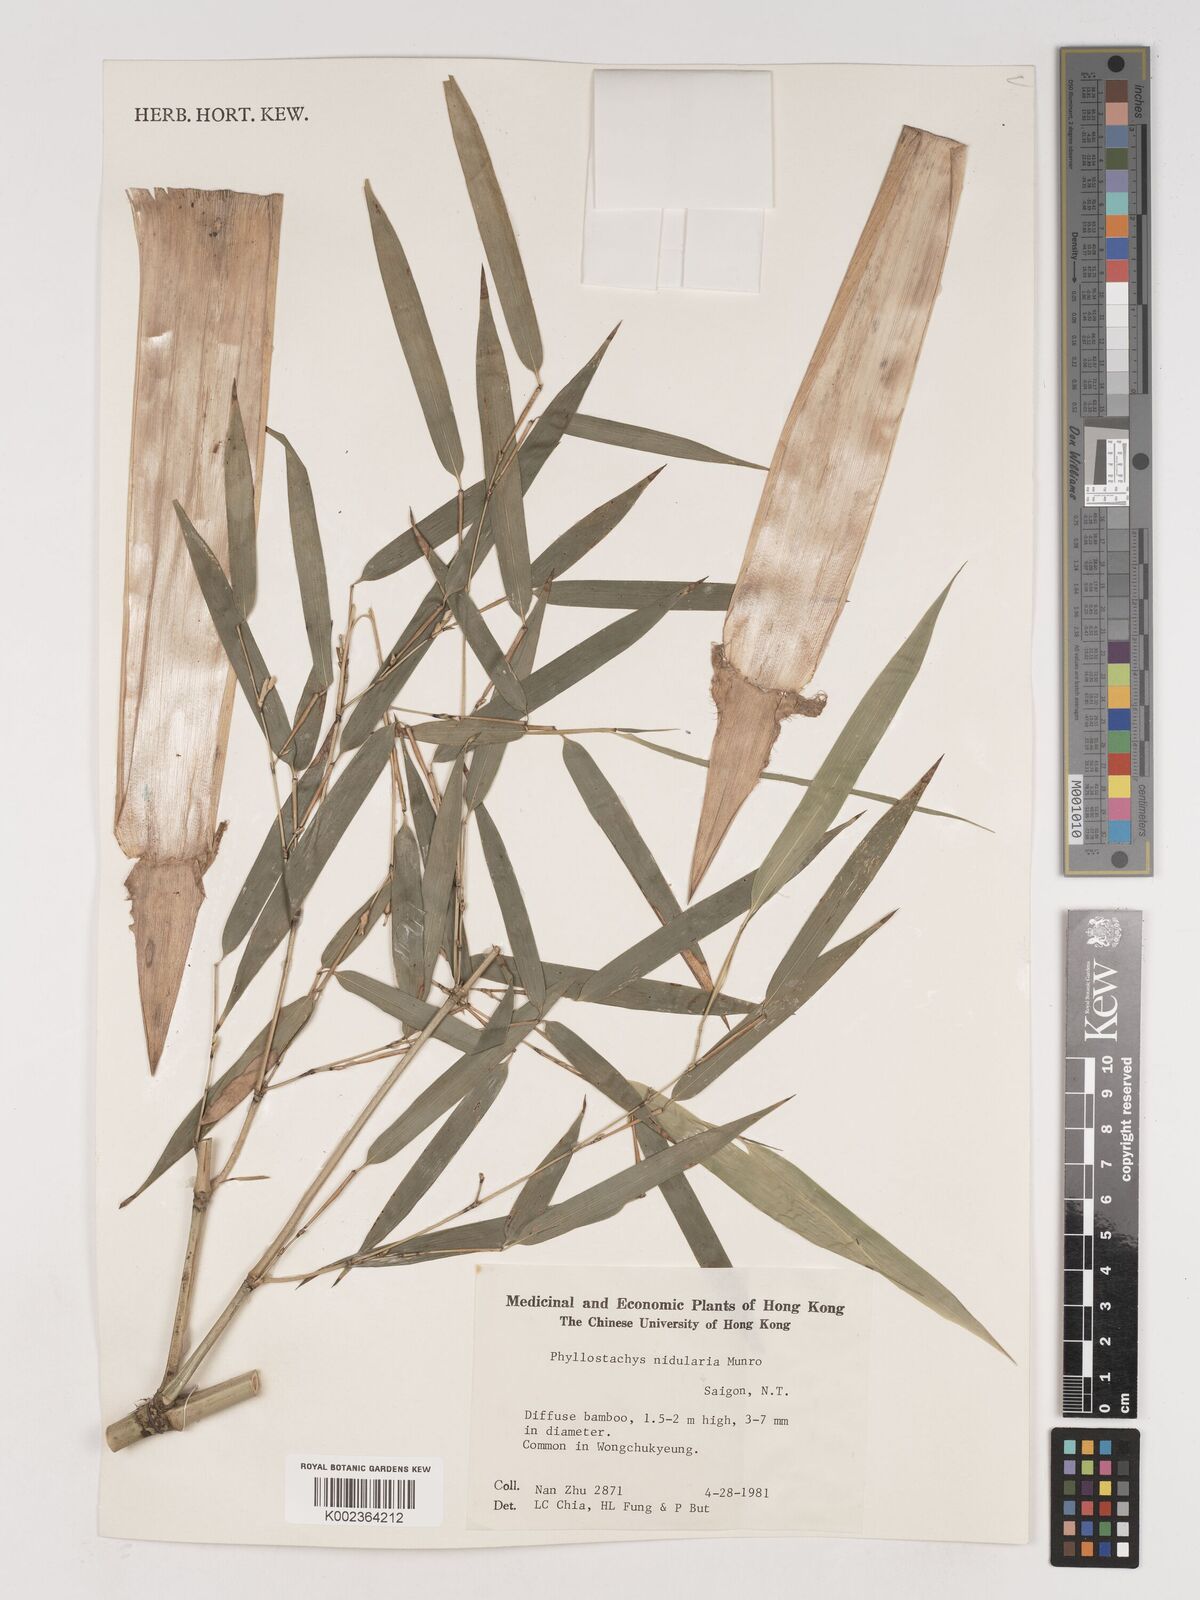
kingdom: Plantae
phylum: Tracheophyta
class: Liliopsida
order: Poales
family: Poaceae
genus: Phyllostachys
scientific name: Phyllostachys nidularia
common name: Broom bamboo
